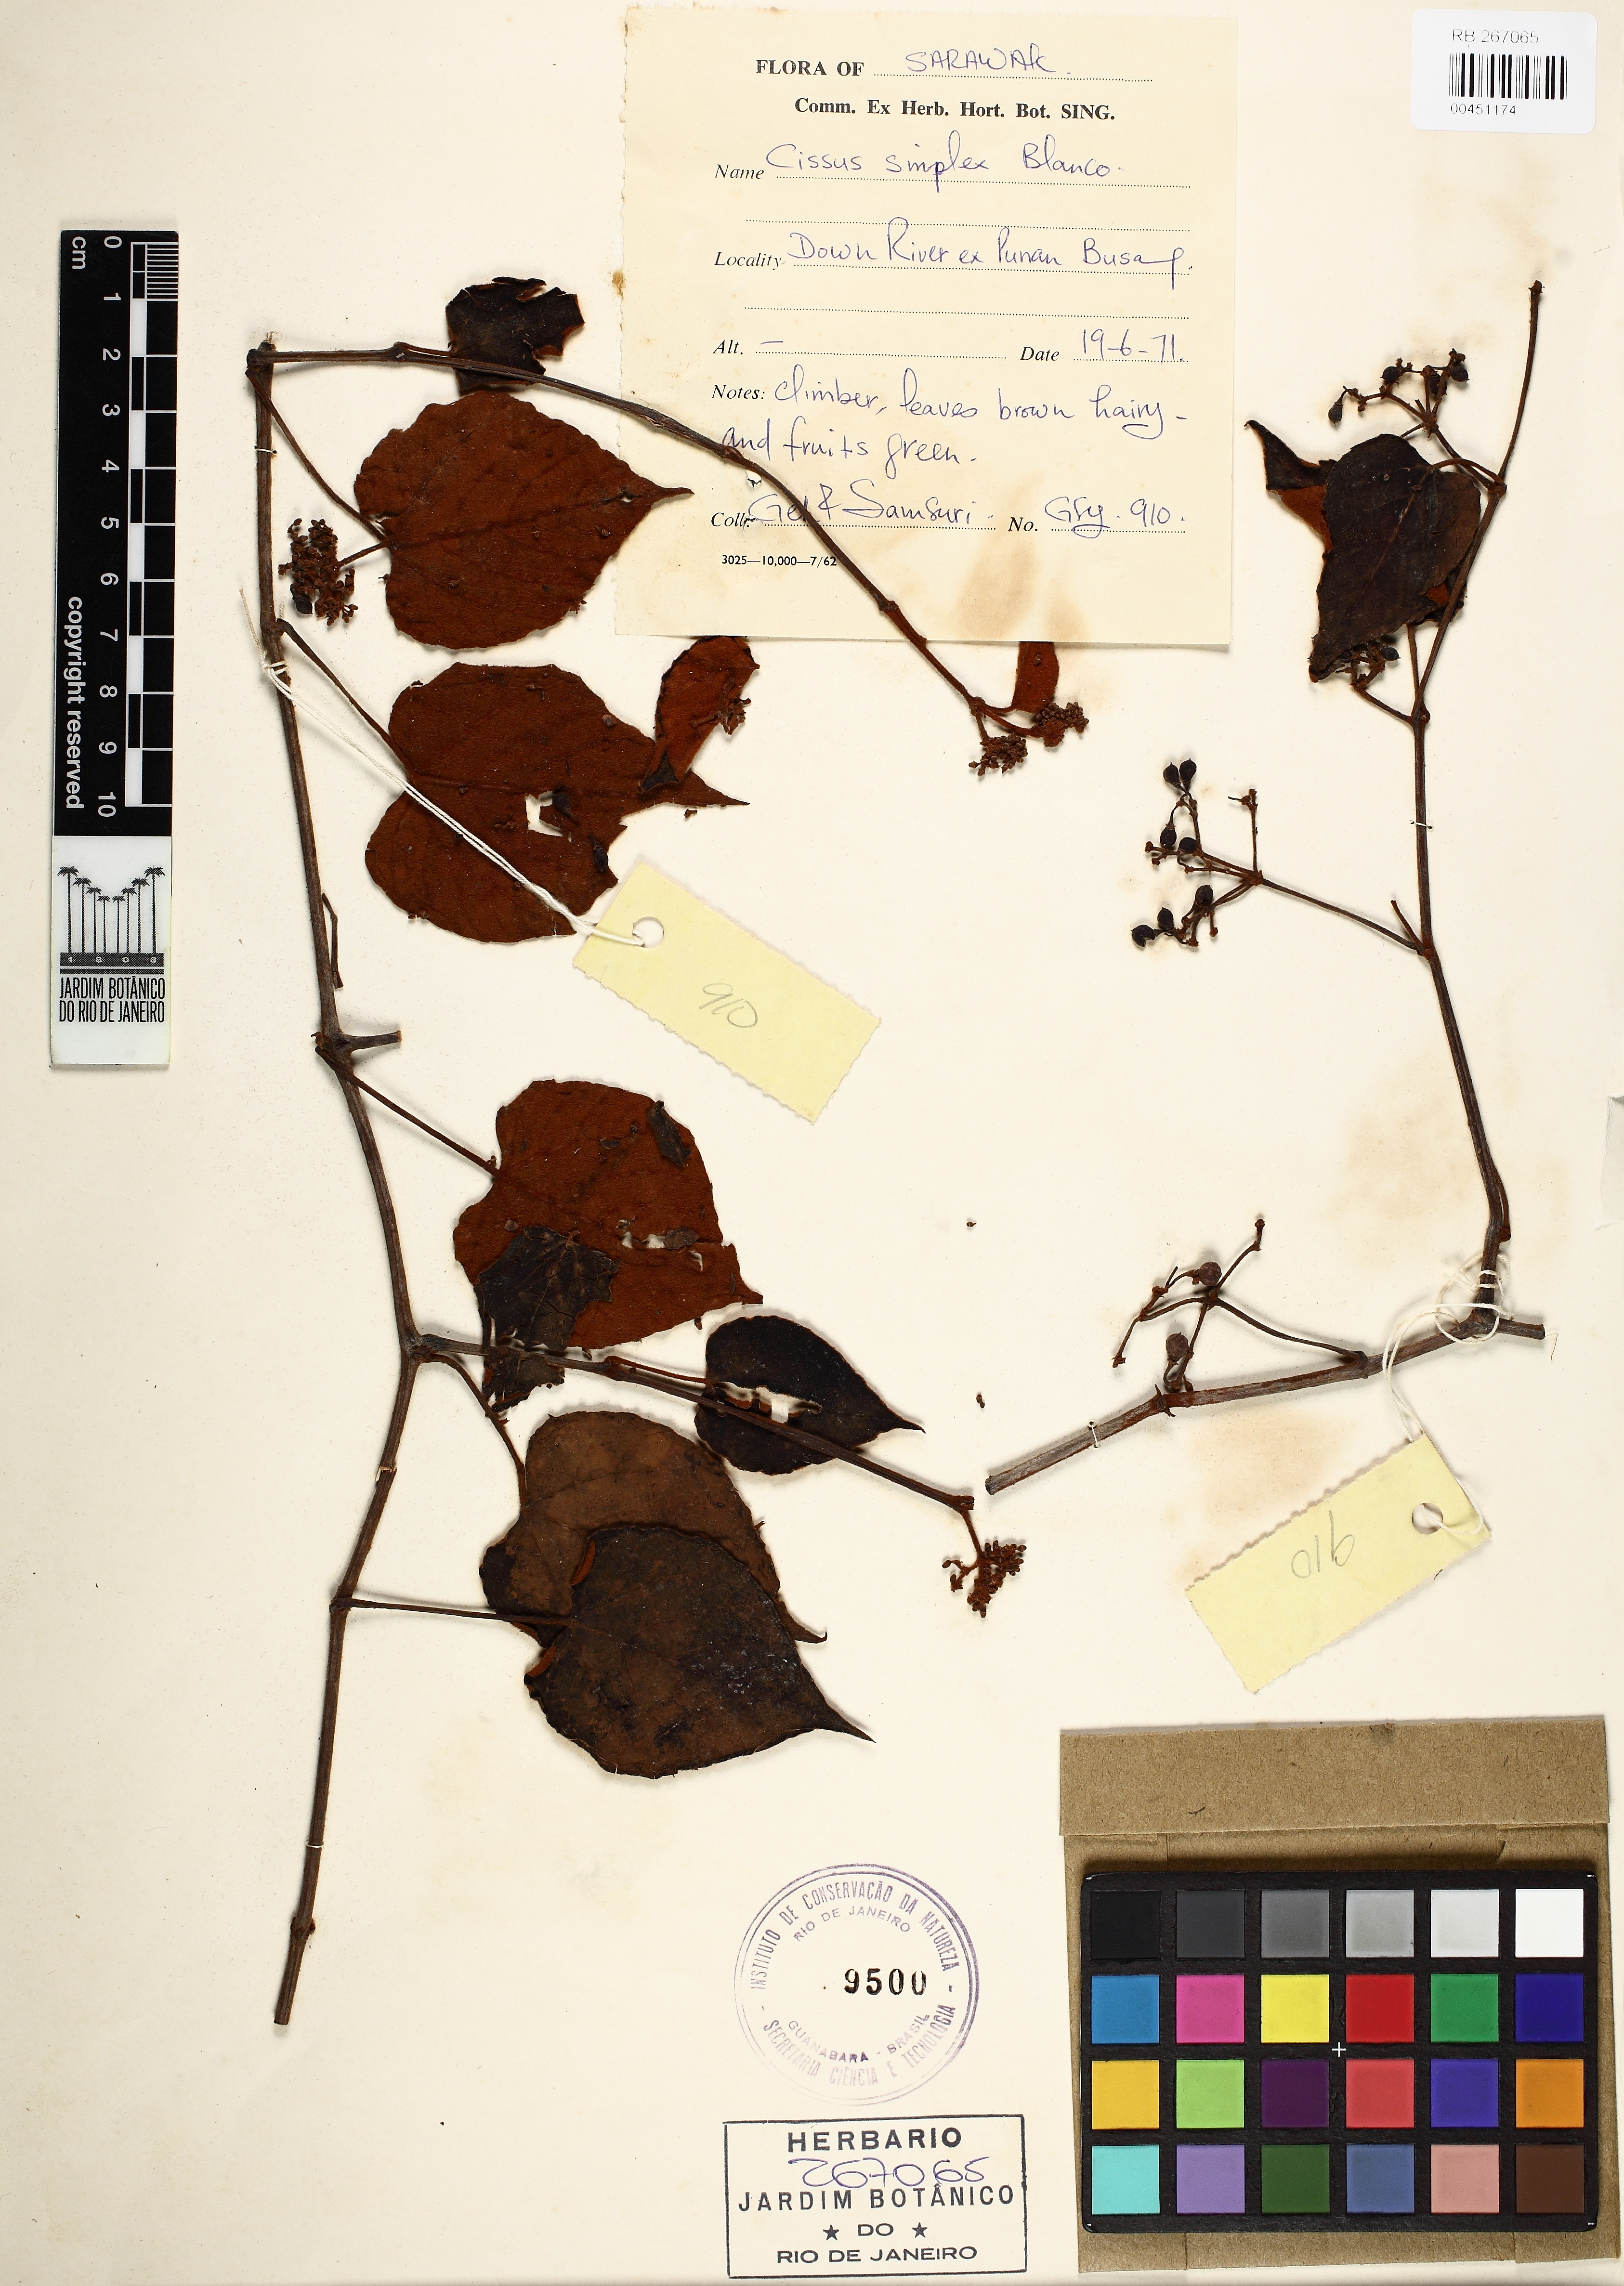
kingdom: Plantae
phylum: Tracheophyta
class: Magnoliopsida
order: Vitales
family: Vitaceae
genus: Cissus
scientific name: Cissus aristata
